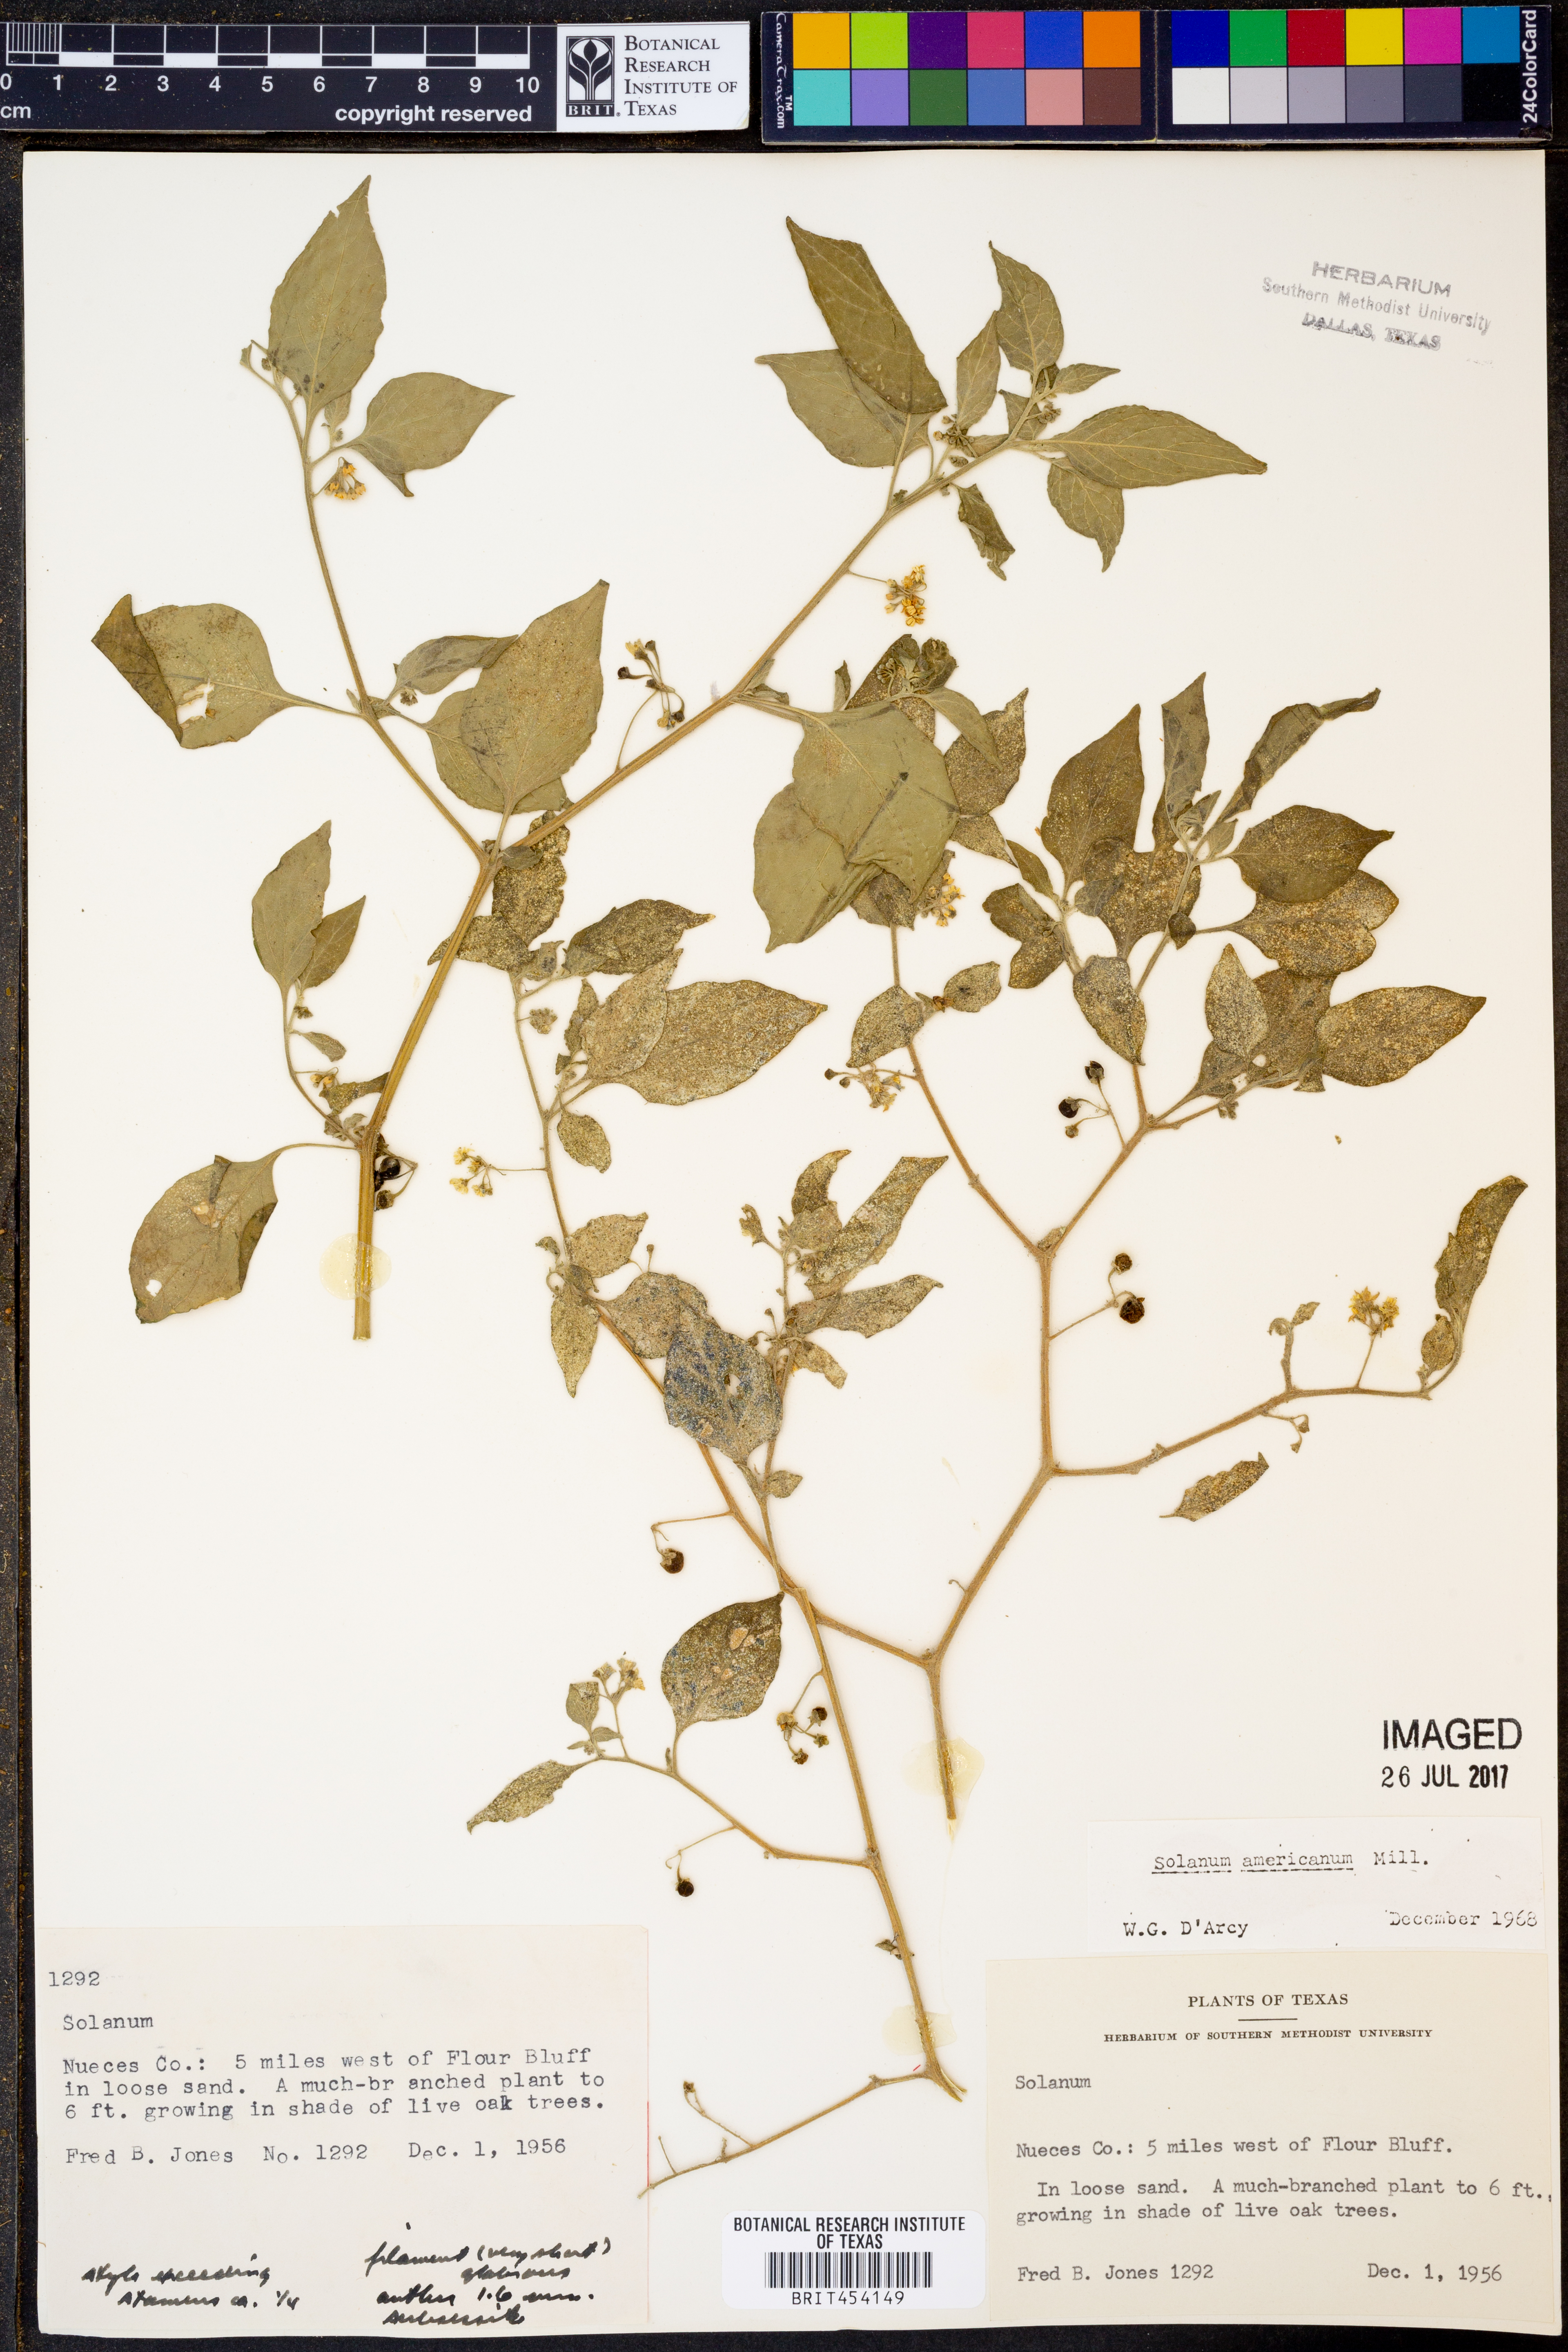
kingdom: Plantae
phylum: Tracheophyta
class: Magnoliopsida
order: Solanales
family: Solanaceae
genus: Solanum
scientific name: Solanum americanum
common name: American black nightshade
